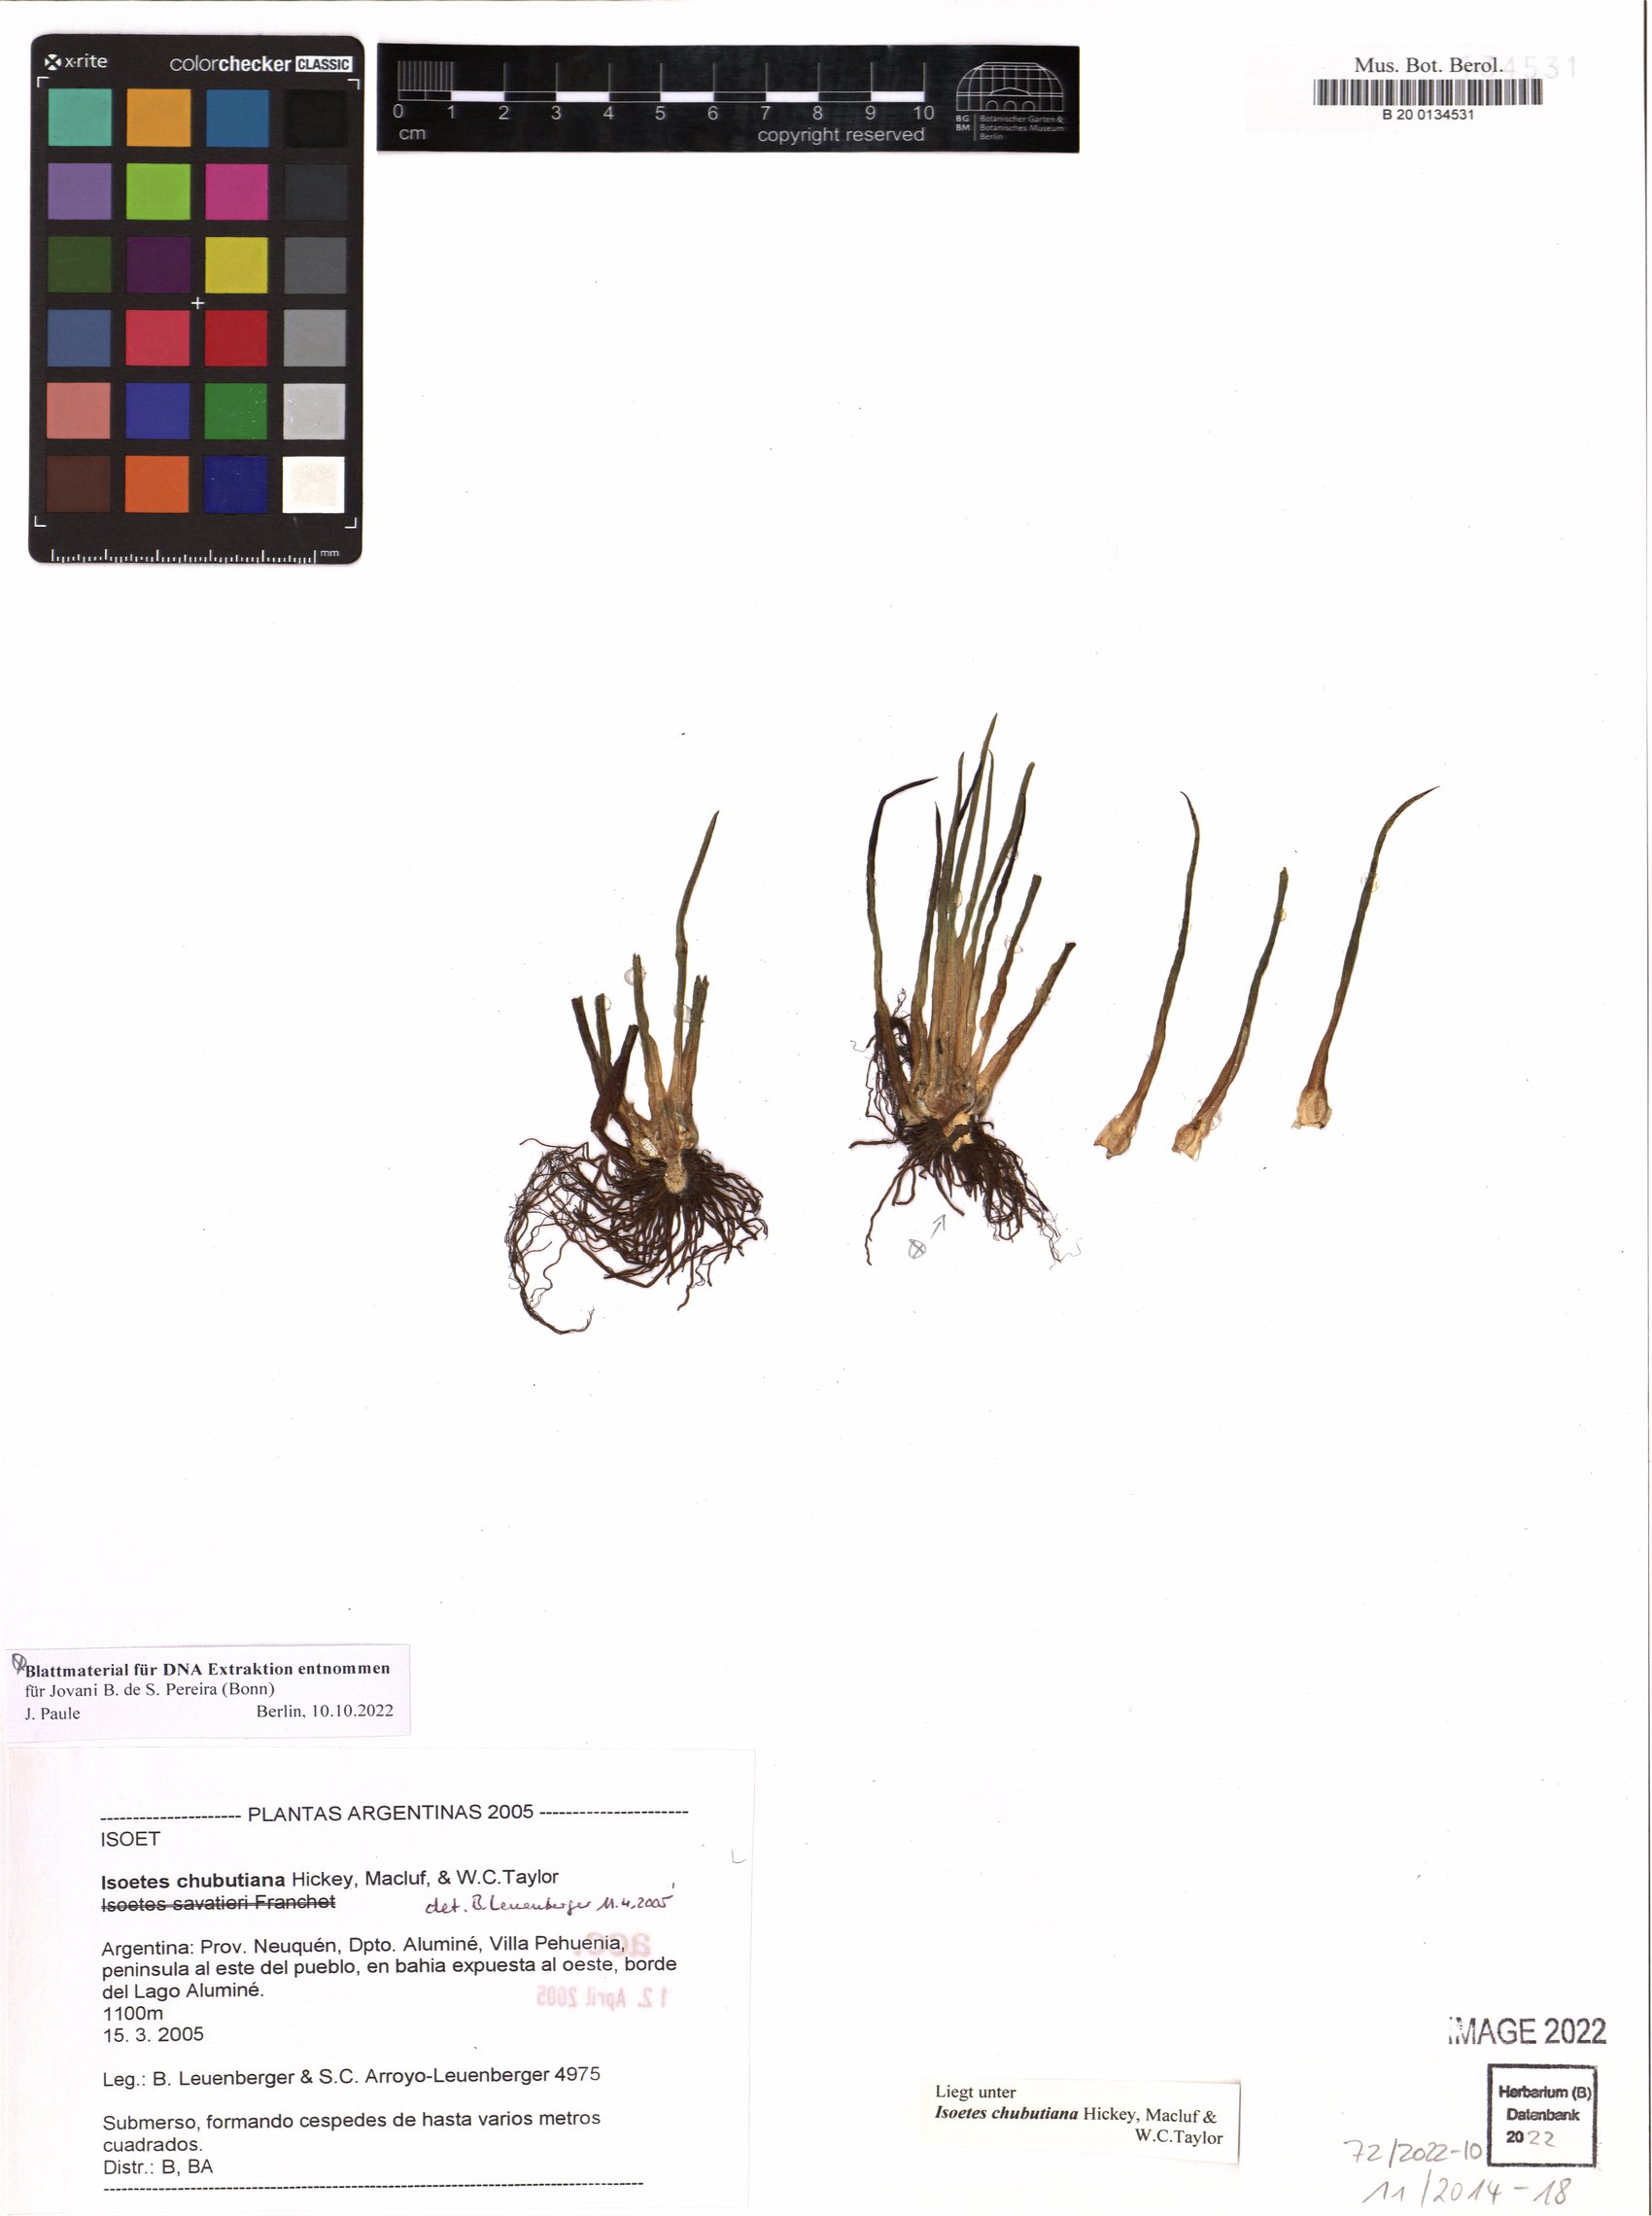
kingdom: Plantae
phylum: Tracheophyta
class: Lycopodiopsida
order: Isoetales
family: Isoetaceae
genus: Isoetes
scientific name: Isoetes chubutiana
